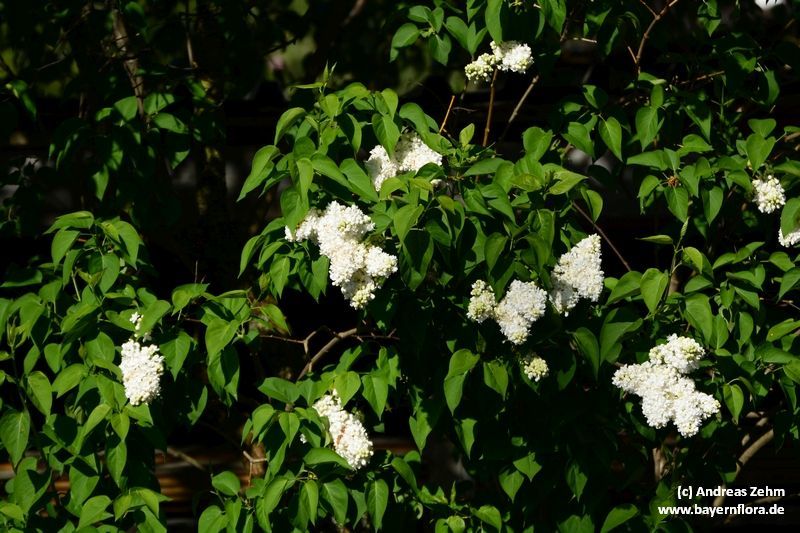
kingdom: Plantae
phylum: Tracheophyta
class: Magnoliopsida
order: Lamiales
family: Oleaceae
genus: Syringa
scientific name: Syringa vulgaris
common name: Common lilac
